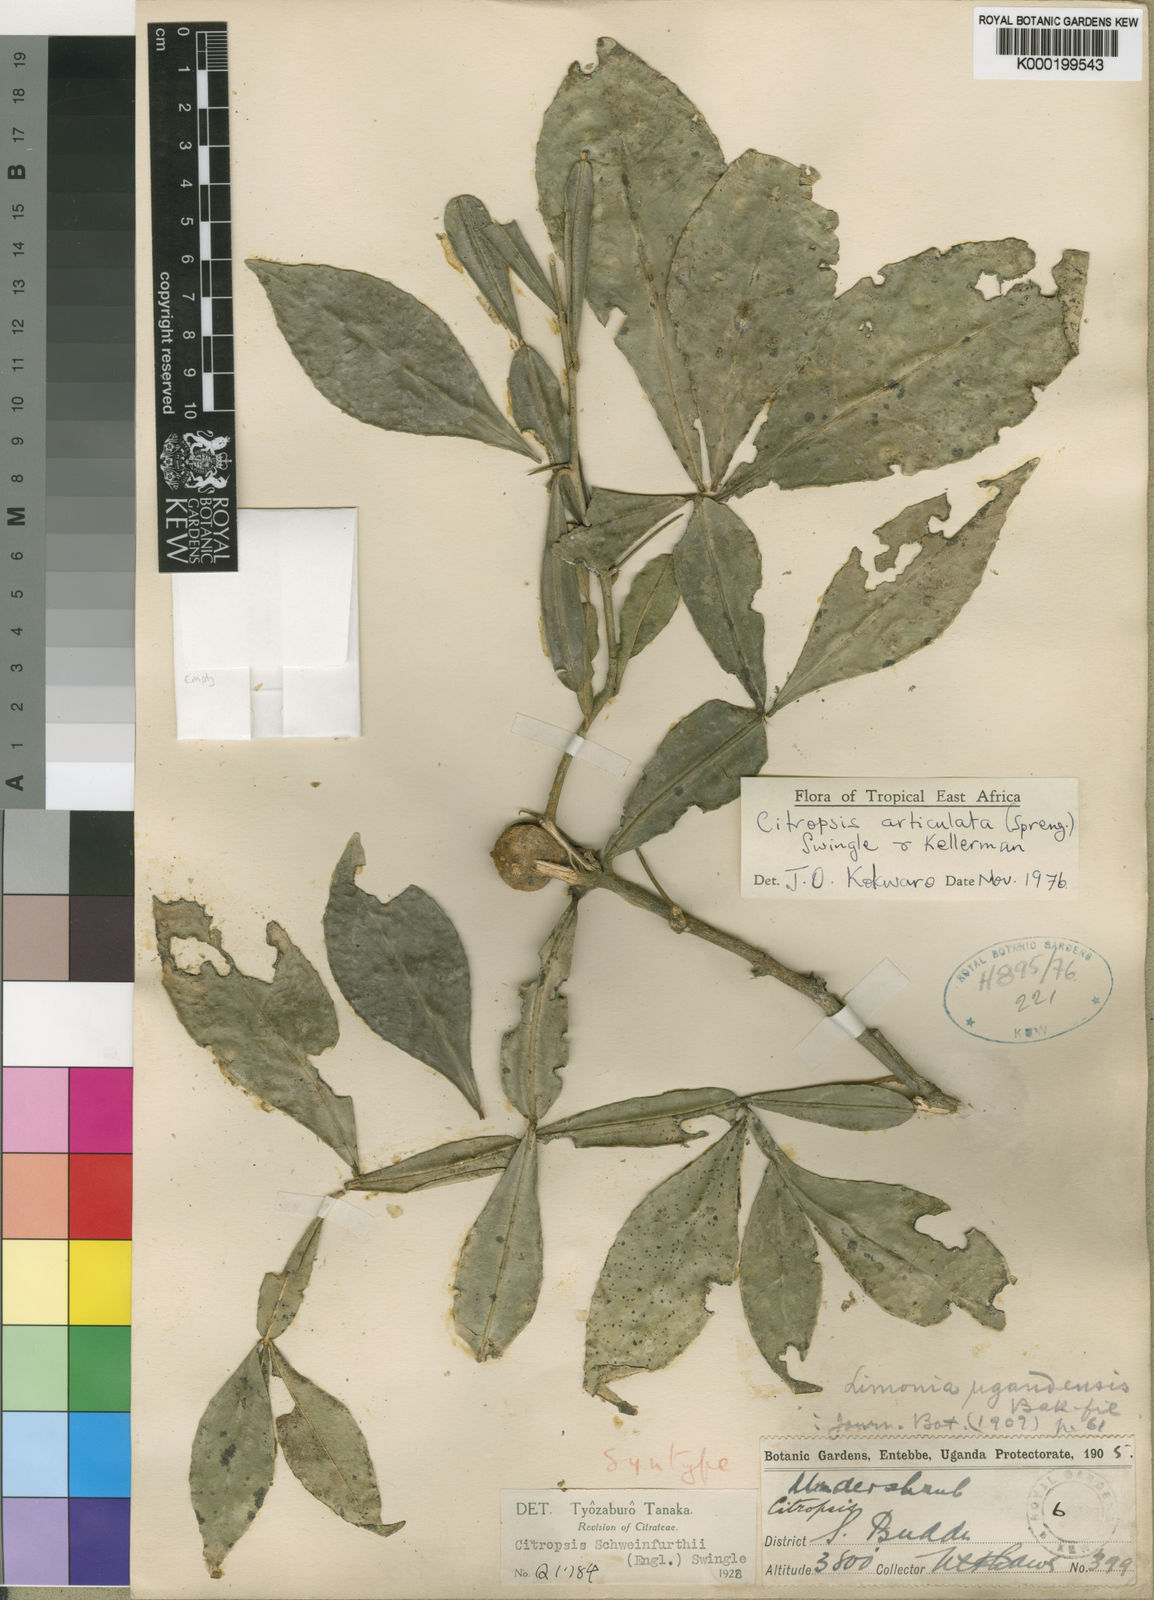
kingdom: Plantae
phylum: Tracheophyta
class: Magnoliopsida
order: Sapindales
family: Rutaceae
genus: Citropsis
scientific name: Citropsis articulata
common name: West african cherry-orange
